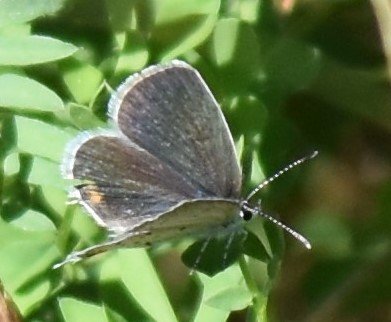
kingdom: Animalia
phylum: Arthropoda
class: Insecta
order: Lepidoptera
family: Lycaenidae
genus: Elkalyce
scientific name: Elkalyce comyntas
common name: Eastern Tailed-Blue
